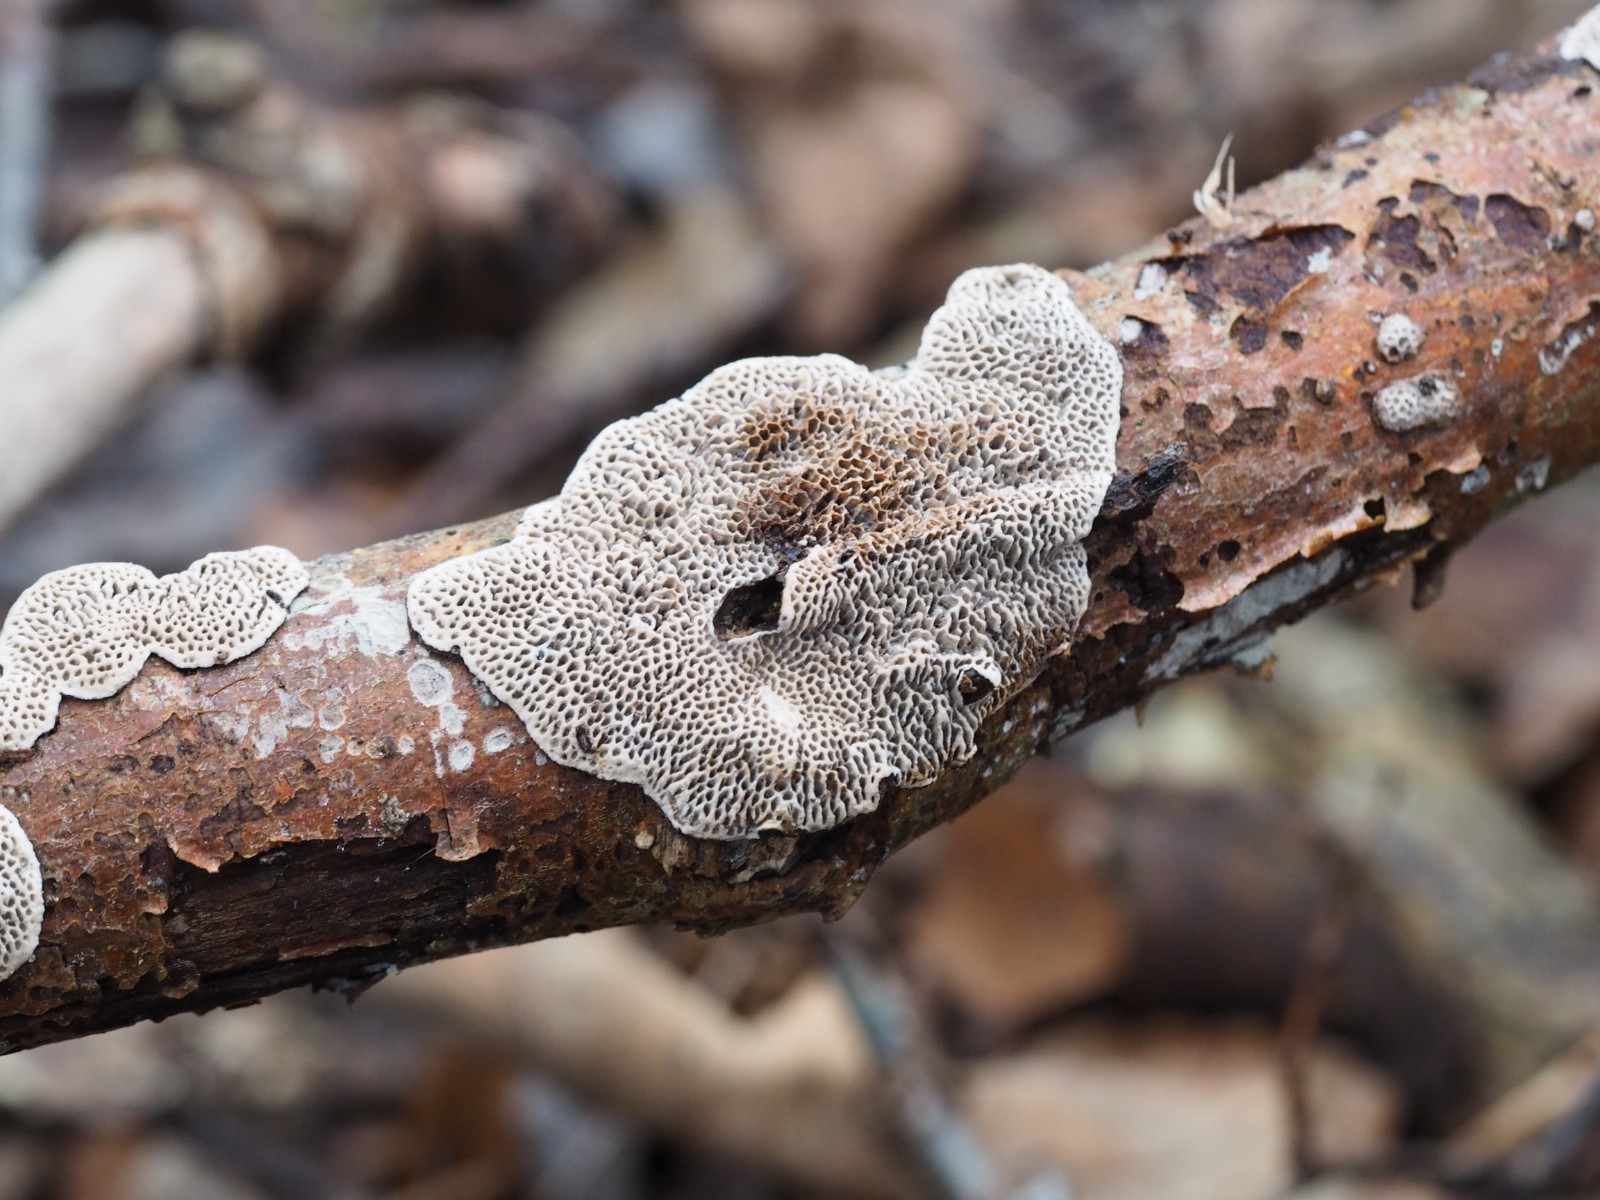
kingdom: Fungi
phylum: Basidiomycota
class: Agaricomycetes
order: Polyporales
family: Polyporaceae
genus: Podofomes
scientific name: Podofomes mollis
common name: blød begporesvamp
